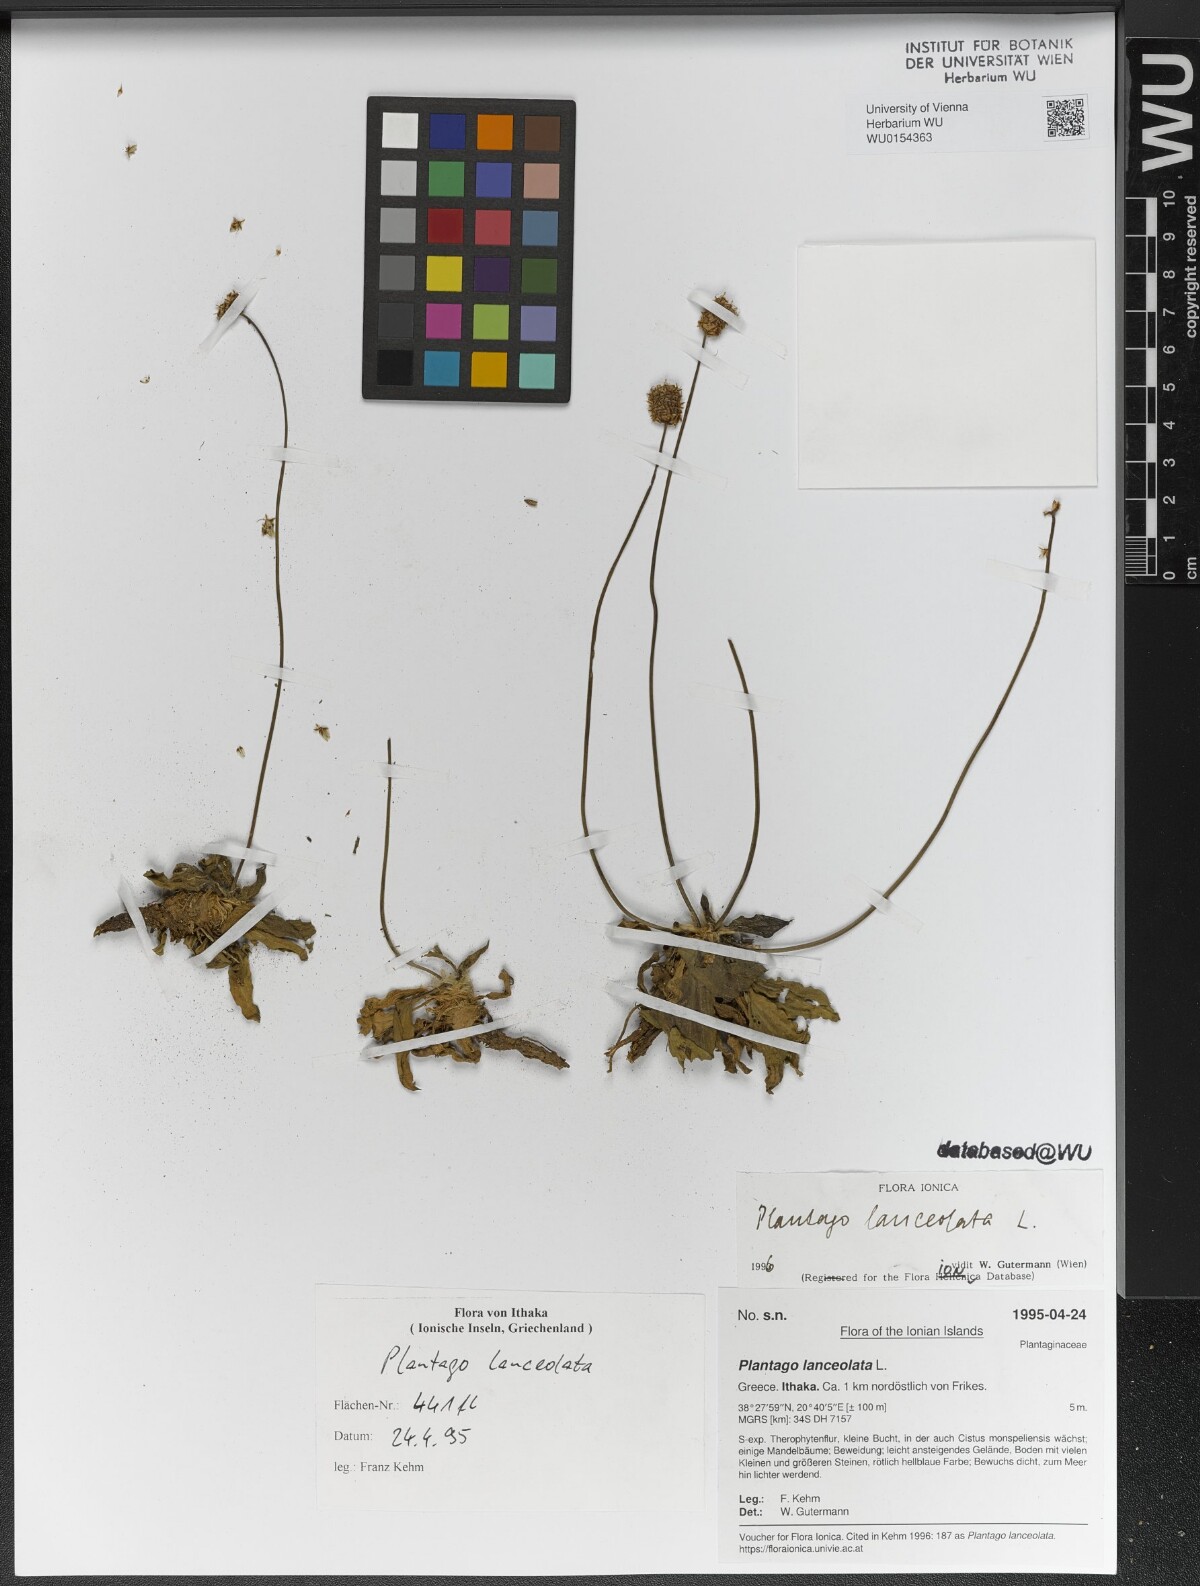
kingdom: Plantae
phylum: Tracheophyta
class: Magnoliopsida
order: Lamiales
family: Plantaginaceae
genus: Plantago
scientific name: Plantago lanceolata
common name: Ribwort plantain
